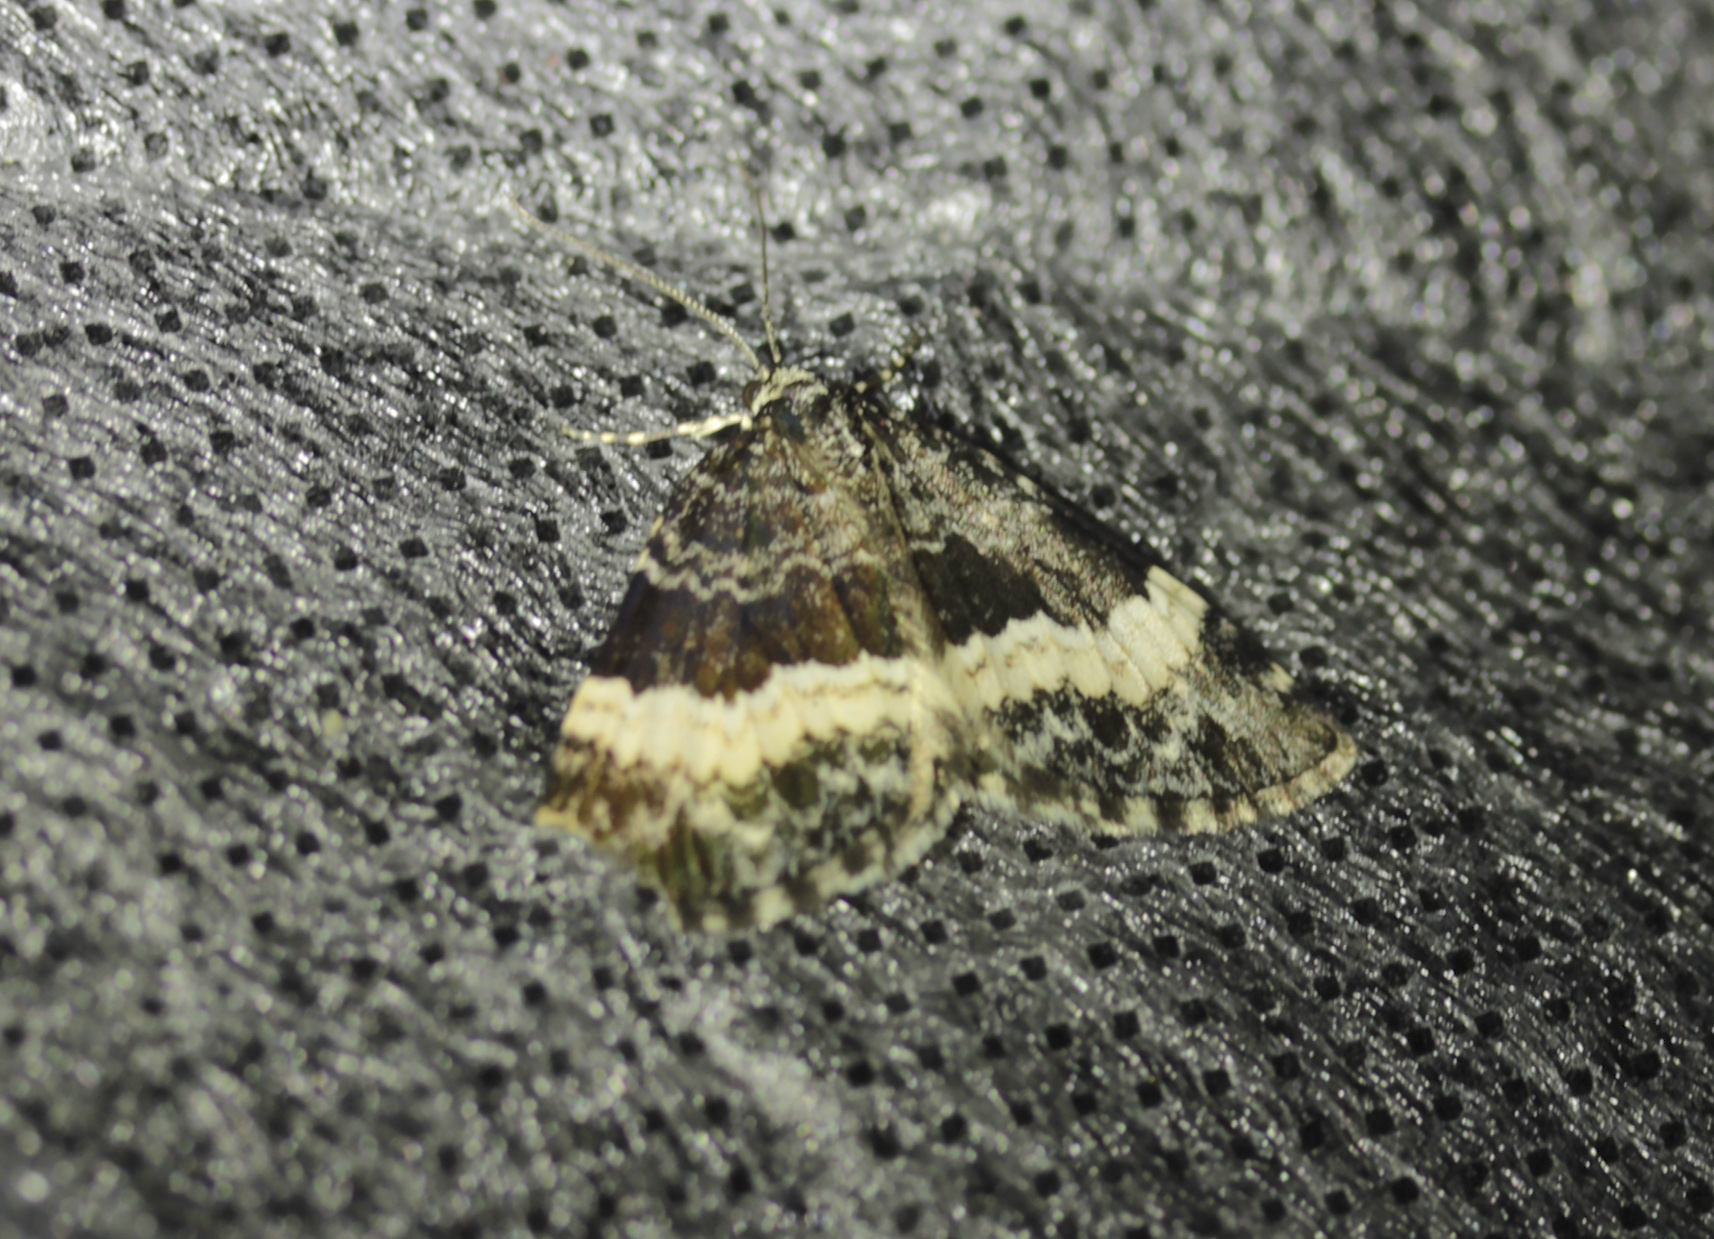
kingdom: Animalia
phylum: Arthropoda
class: Insecta
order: Lepidoptera
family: Geometridae
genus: Spargania
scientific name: Spargania luctuata
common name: White-banded carpet
